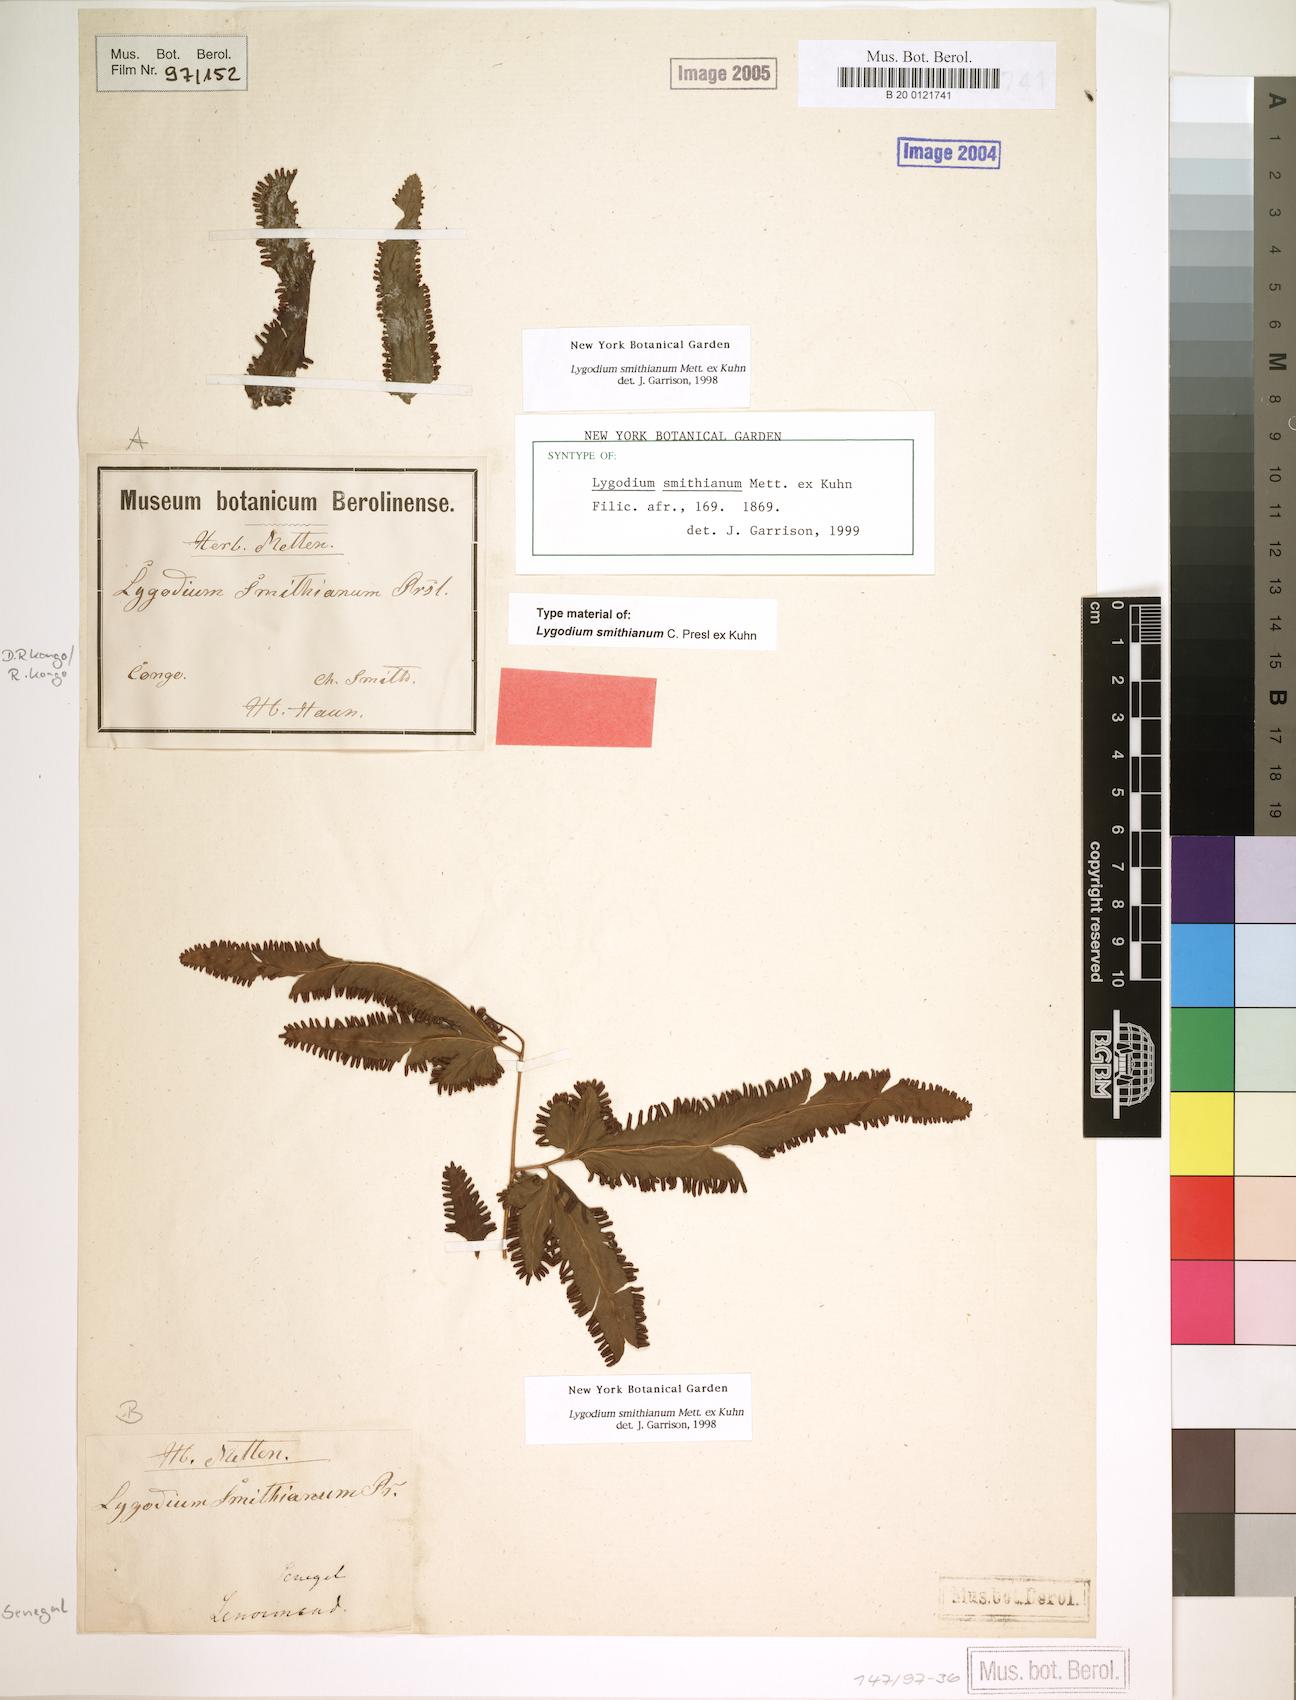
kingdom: Plantae
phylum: Tracheophyta
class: Polypodiopsida
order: Schizaeales
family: Lygodiaceae
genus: Lygodium
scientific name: Lygodium smithianum
